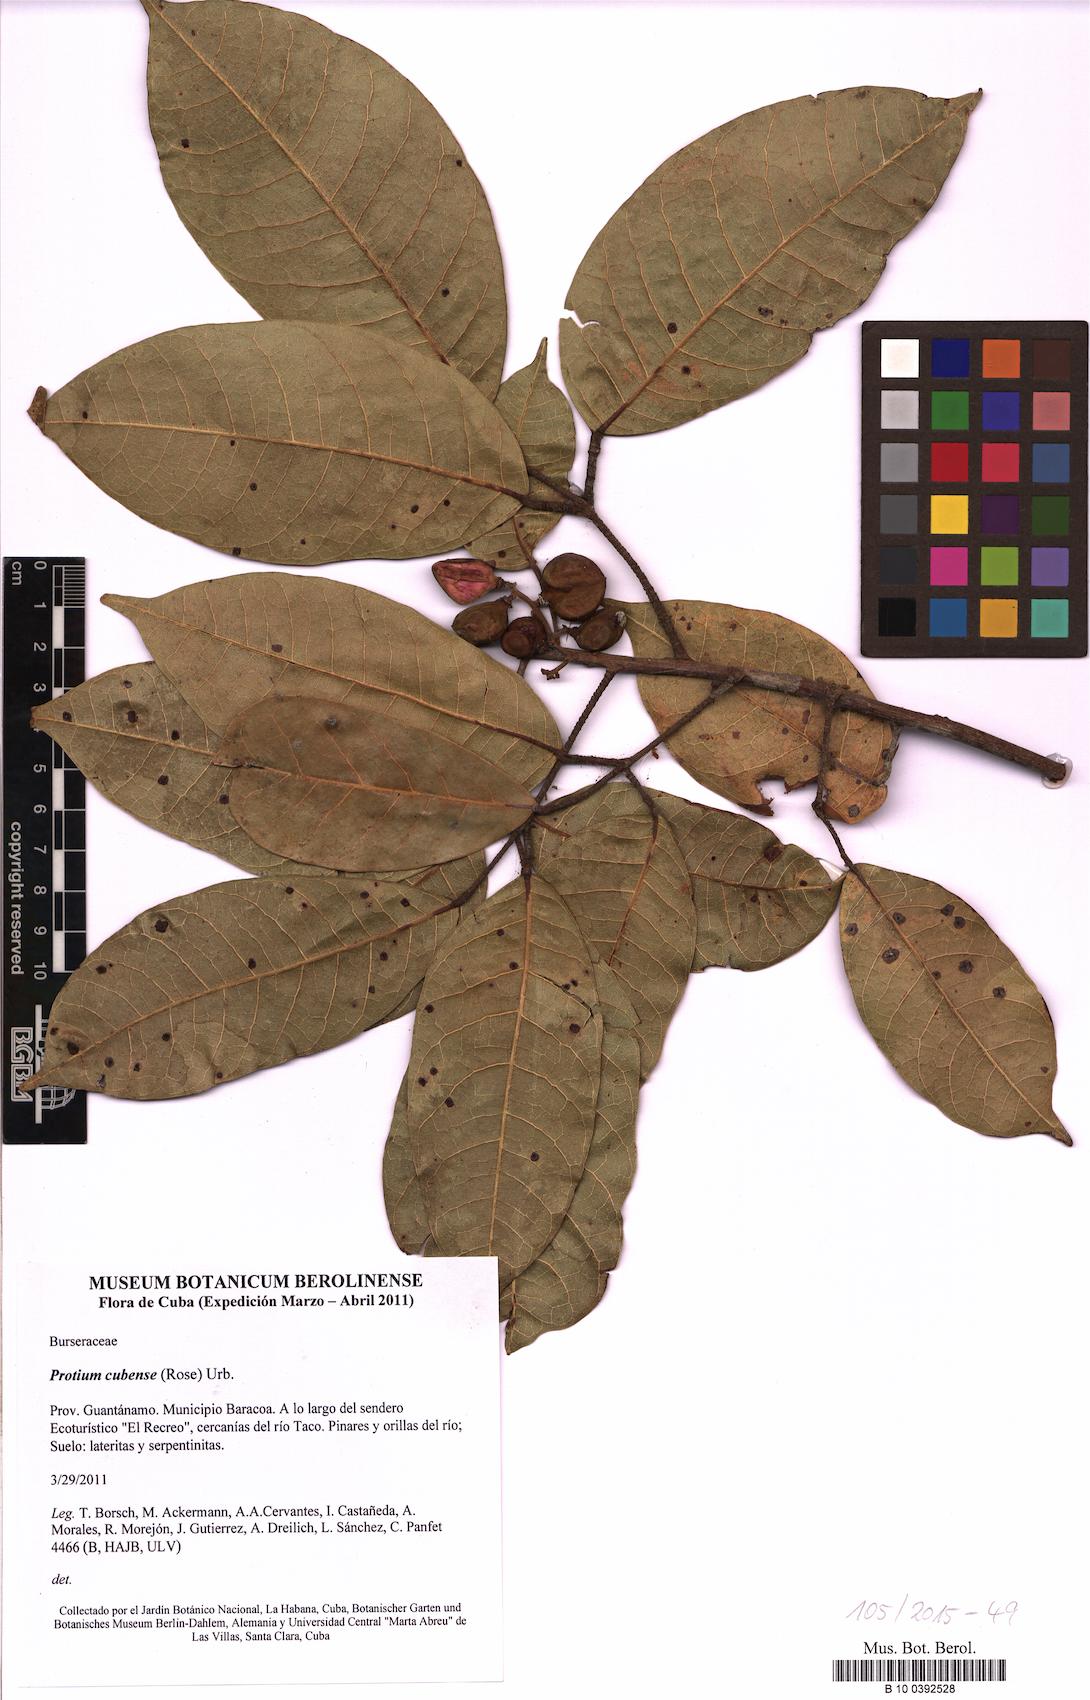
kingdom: Plantae
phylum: Tracheophyta
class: Magnoliopsida
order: Sapindales
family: Burseraceae
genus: Protium
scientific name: Protium cubense
